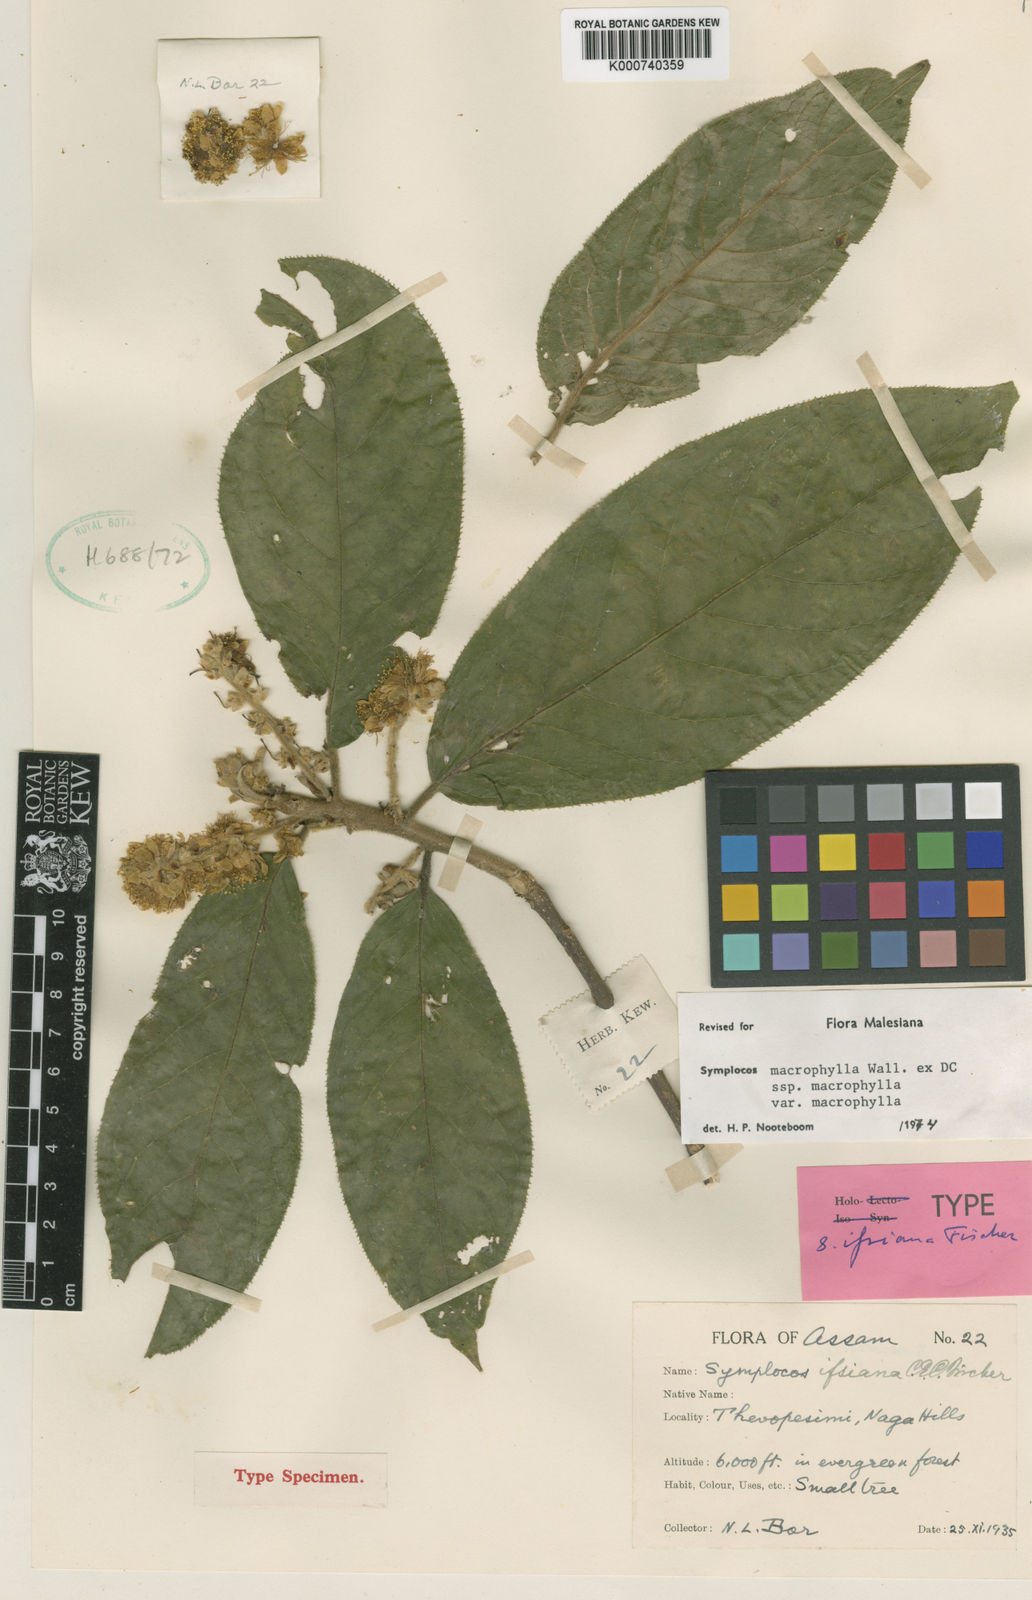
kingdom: Plantae
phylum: Tracheophyta
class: Magnoliopsida
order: Ericales
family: Symplocaceae
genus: Symplocos
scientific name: Symplocos
